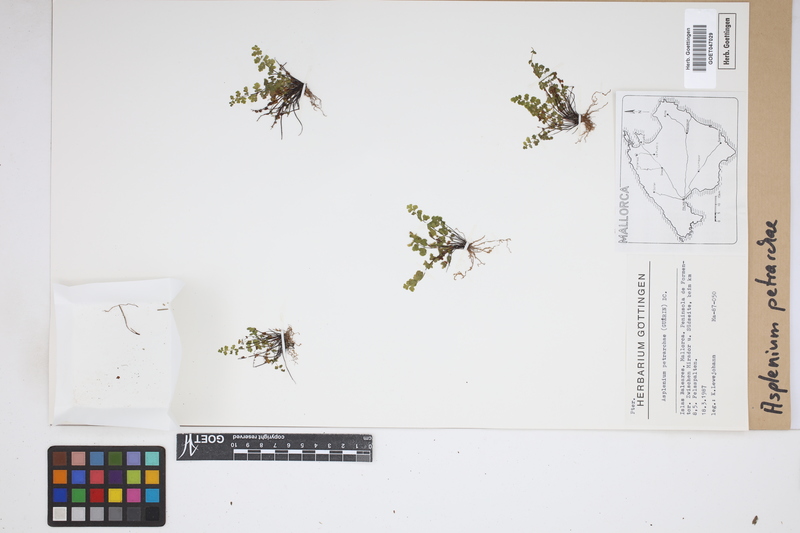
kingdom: Plantae
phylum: Tracheophyta
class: Polypodiopsida
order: Polypodiales
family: Aspleniaceae
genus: Asplenium
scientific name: Asplenium petrarchae
